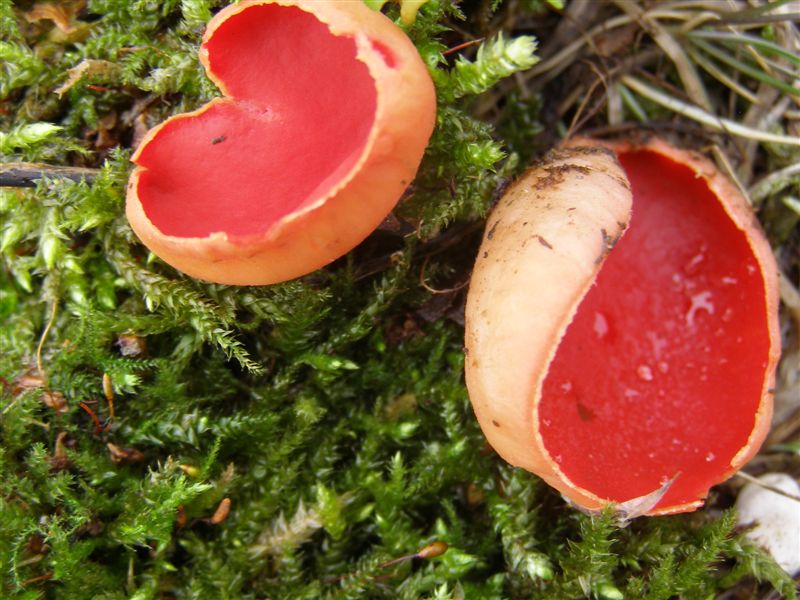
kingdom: Fungi
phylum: Ascomycota
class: Pezizomycetes
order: Pezizales
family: Sarcoscyphaceae
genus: Sarcoscypha
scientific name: Sarcoscypha austriaca
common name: krølhåret pragtbæger
